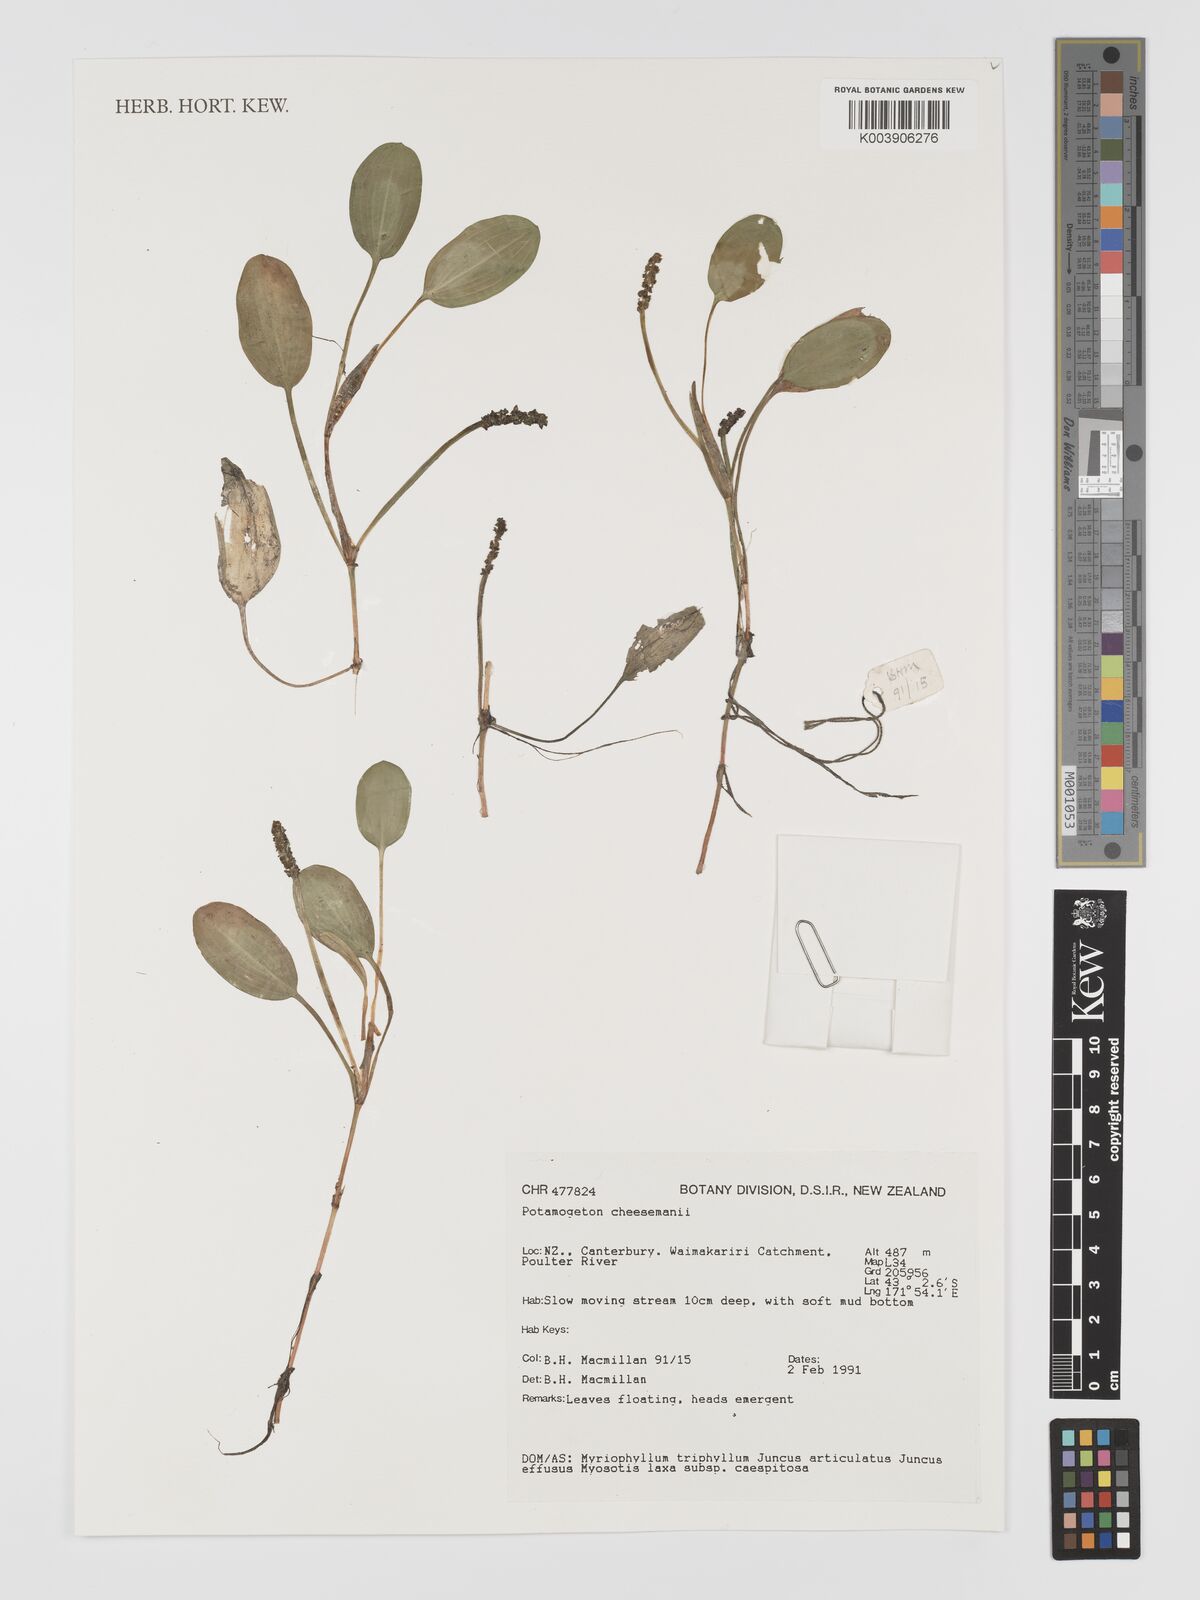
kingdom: Plantae
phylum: Tracheophyta
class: Liliopsida
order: Alismatales
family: Potamogetonaceae
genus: Potamogeton
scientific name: Potamogeton cheesemanii
